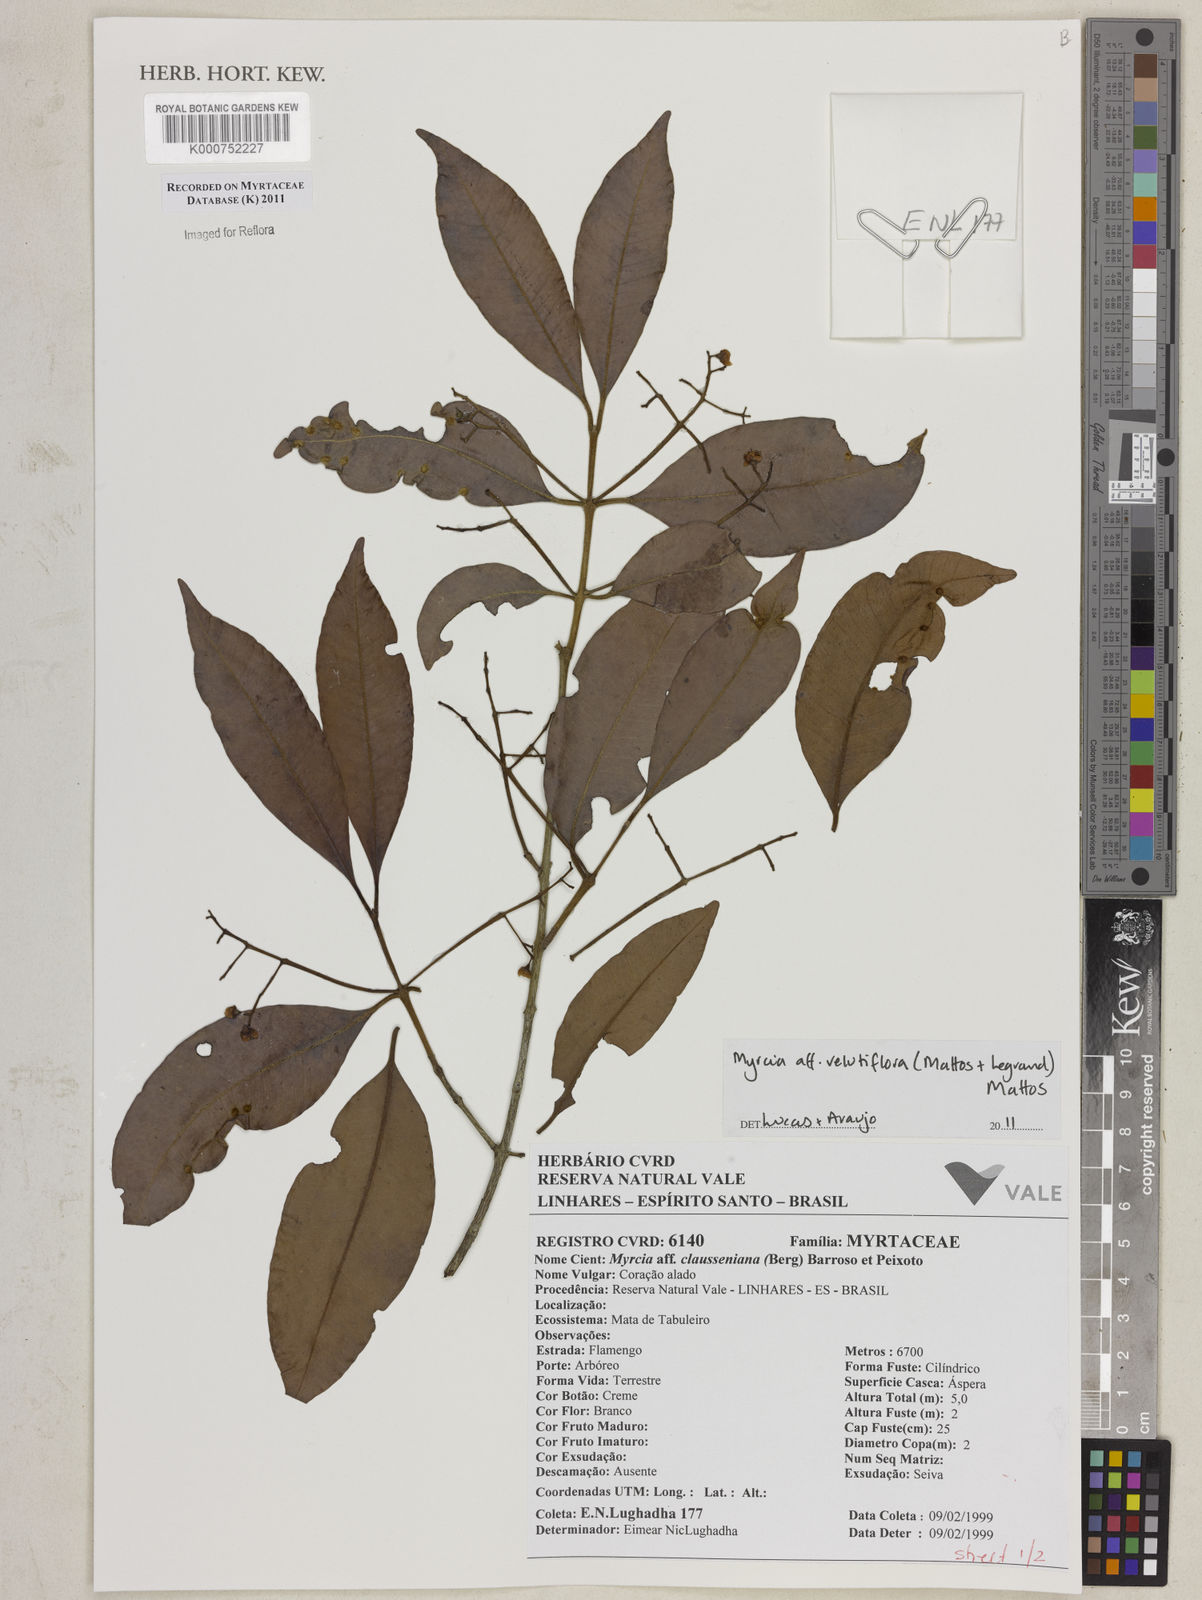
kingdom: Plantae
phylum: Tracheophyta
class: Magnoliopsida
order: Myrtales
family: Myrtaceae
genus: Myrcia
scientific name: Myrcia velutiflora
